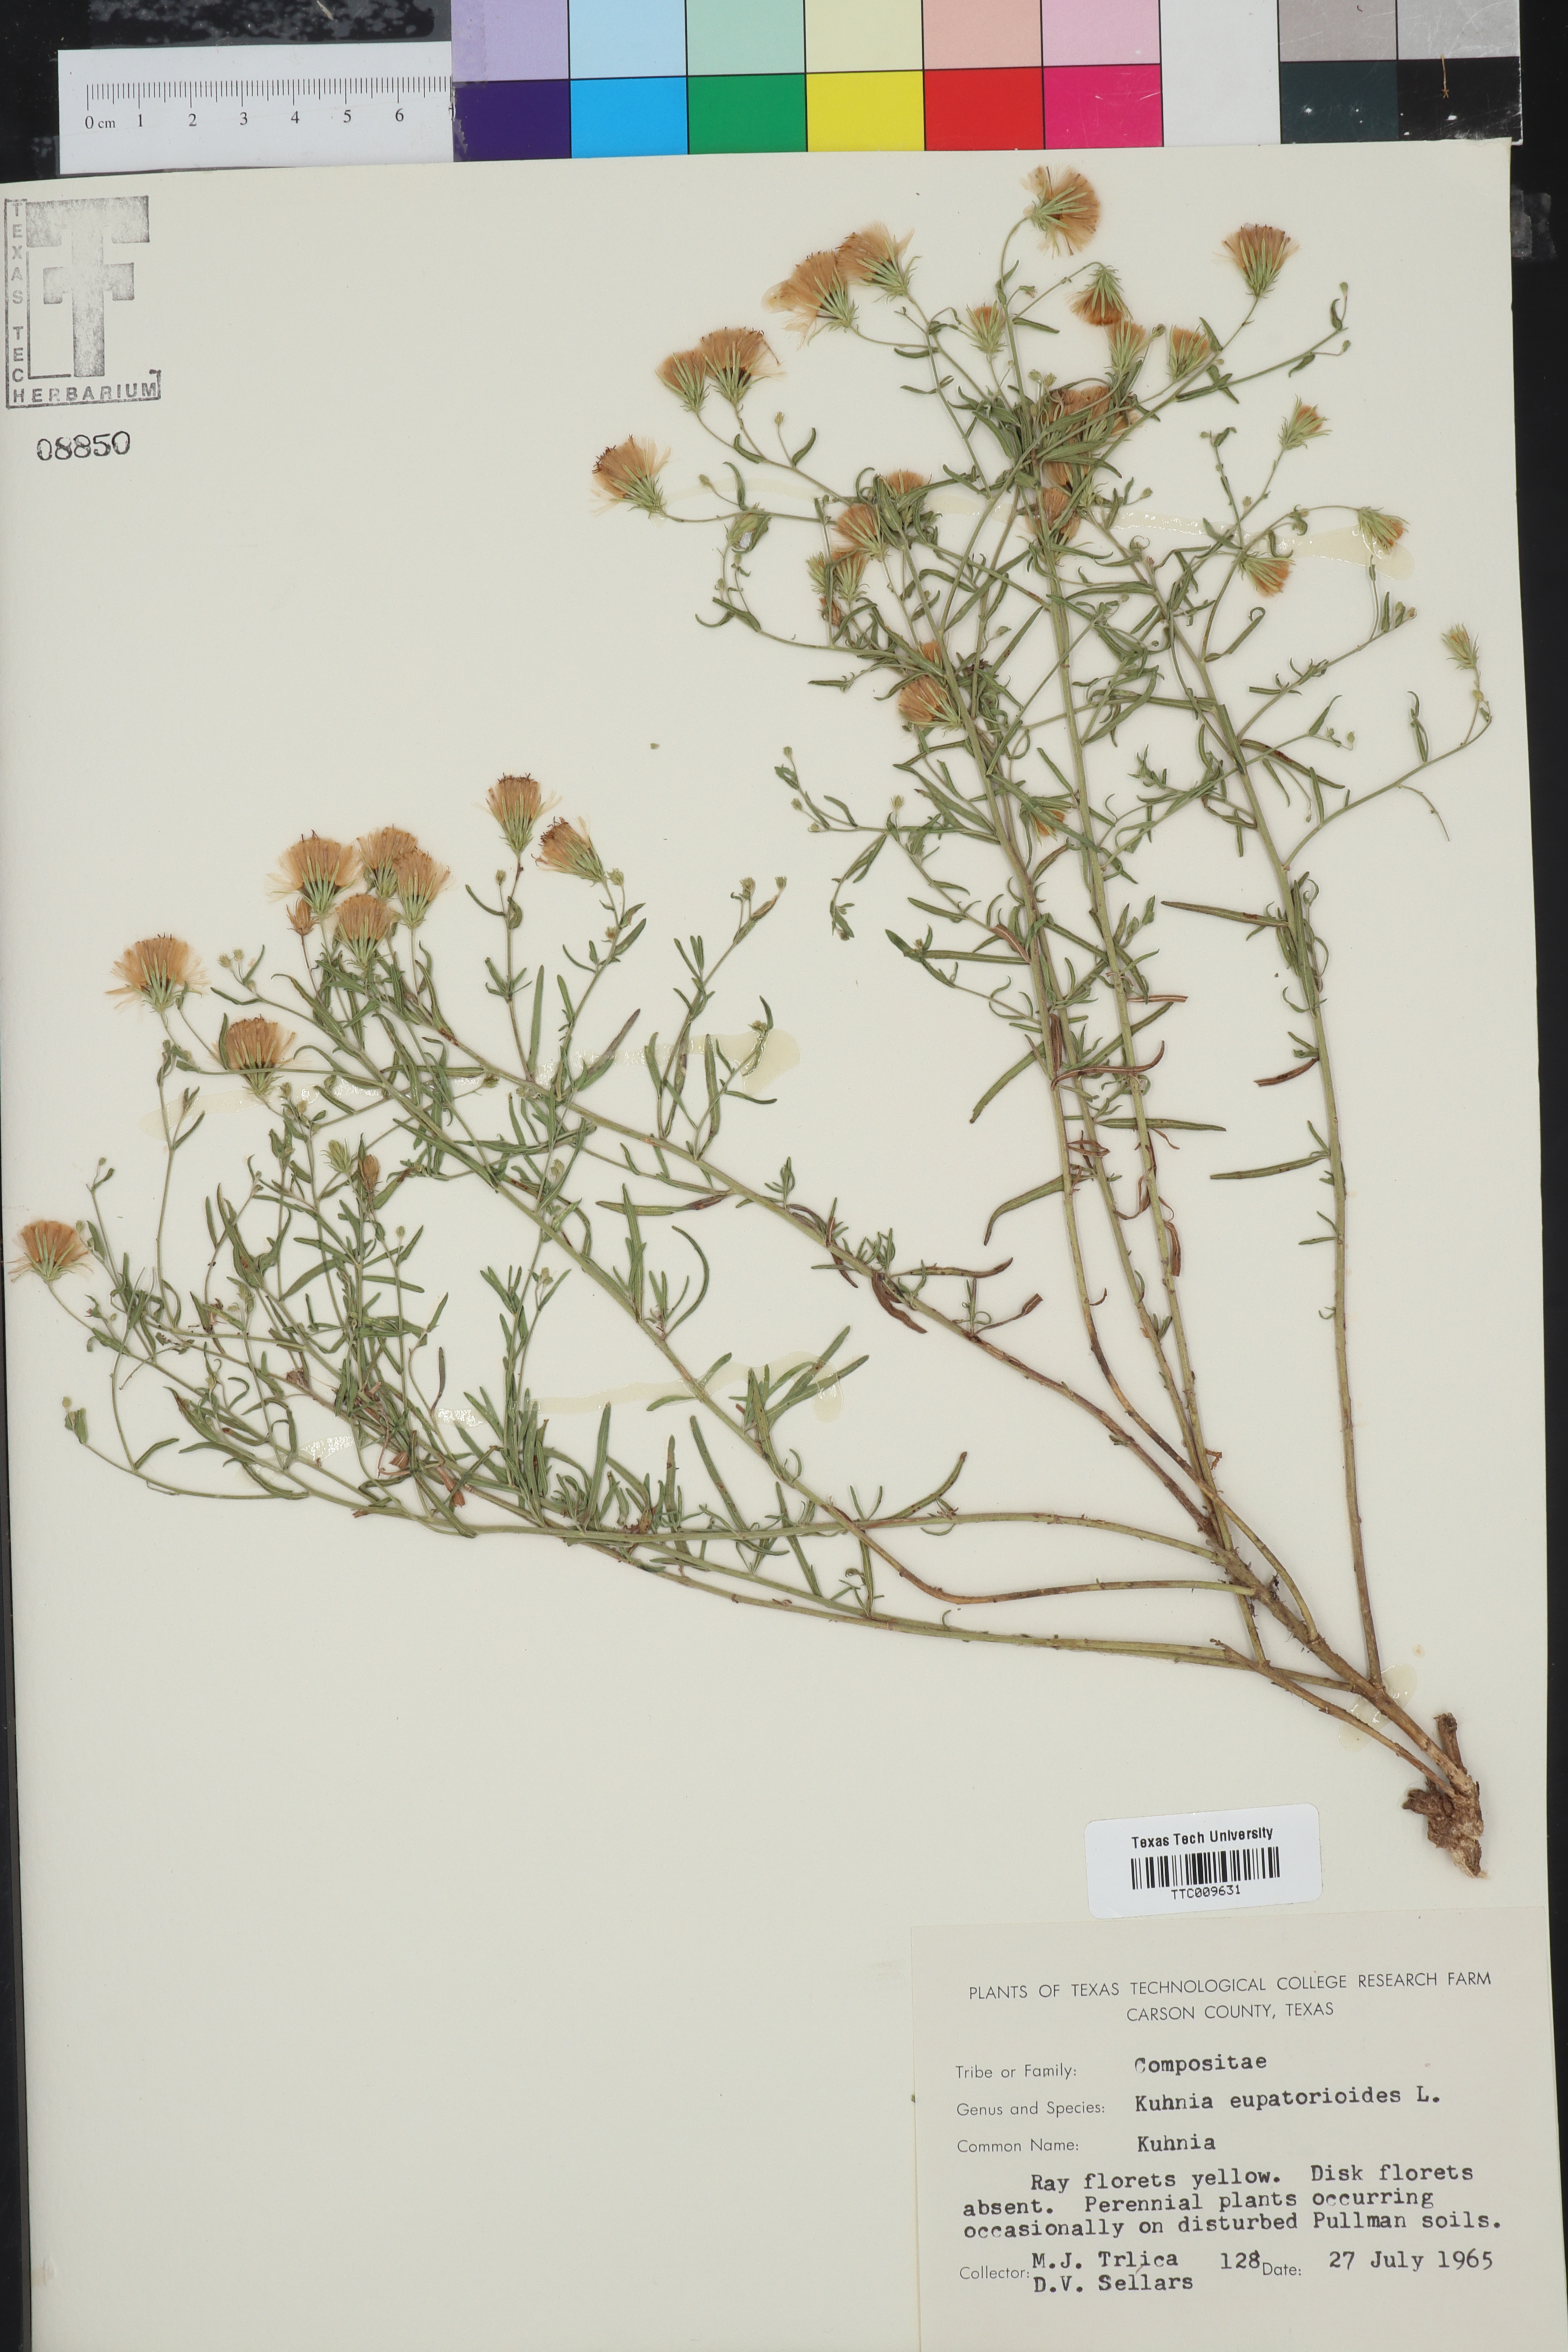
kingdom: Plantae
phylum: Tracheophyta
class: Magnoliopsida
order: Asterales
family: Asteraceae
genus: Brickellia
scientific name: Brickellia eupatorioides
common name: False boneset
